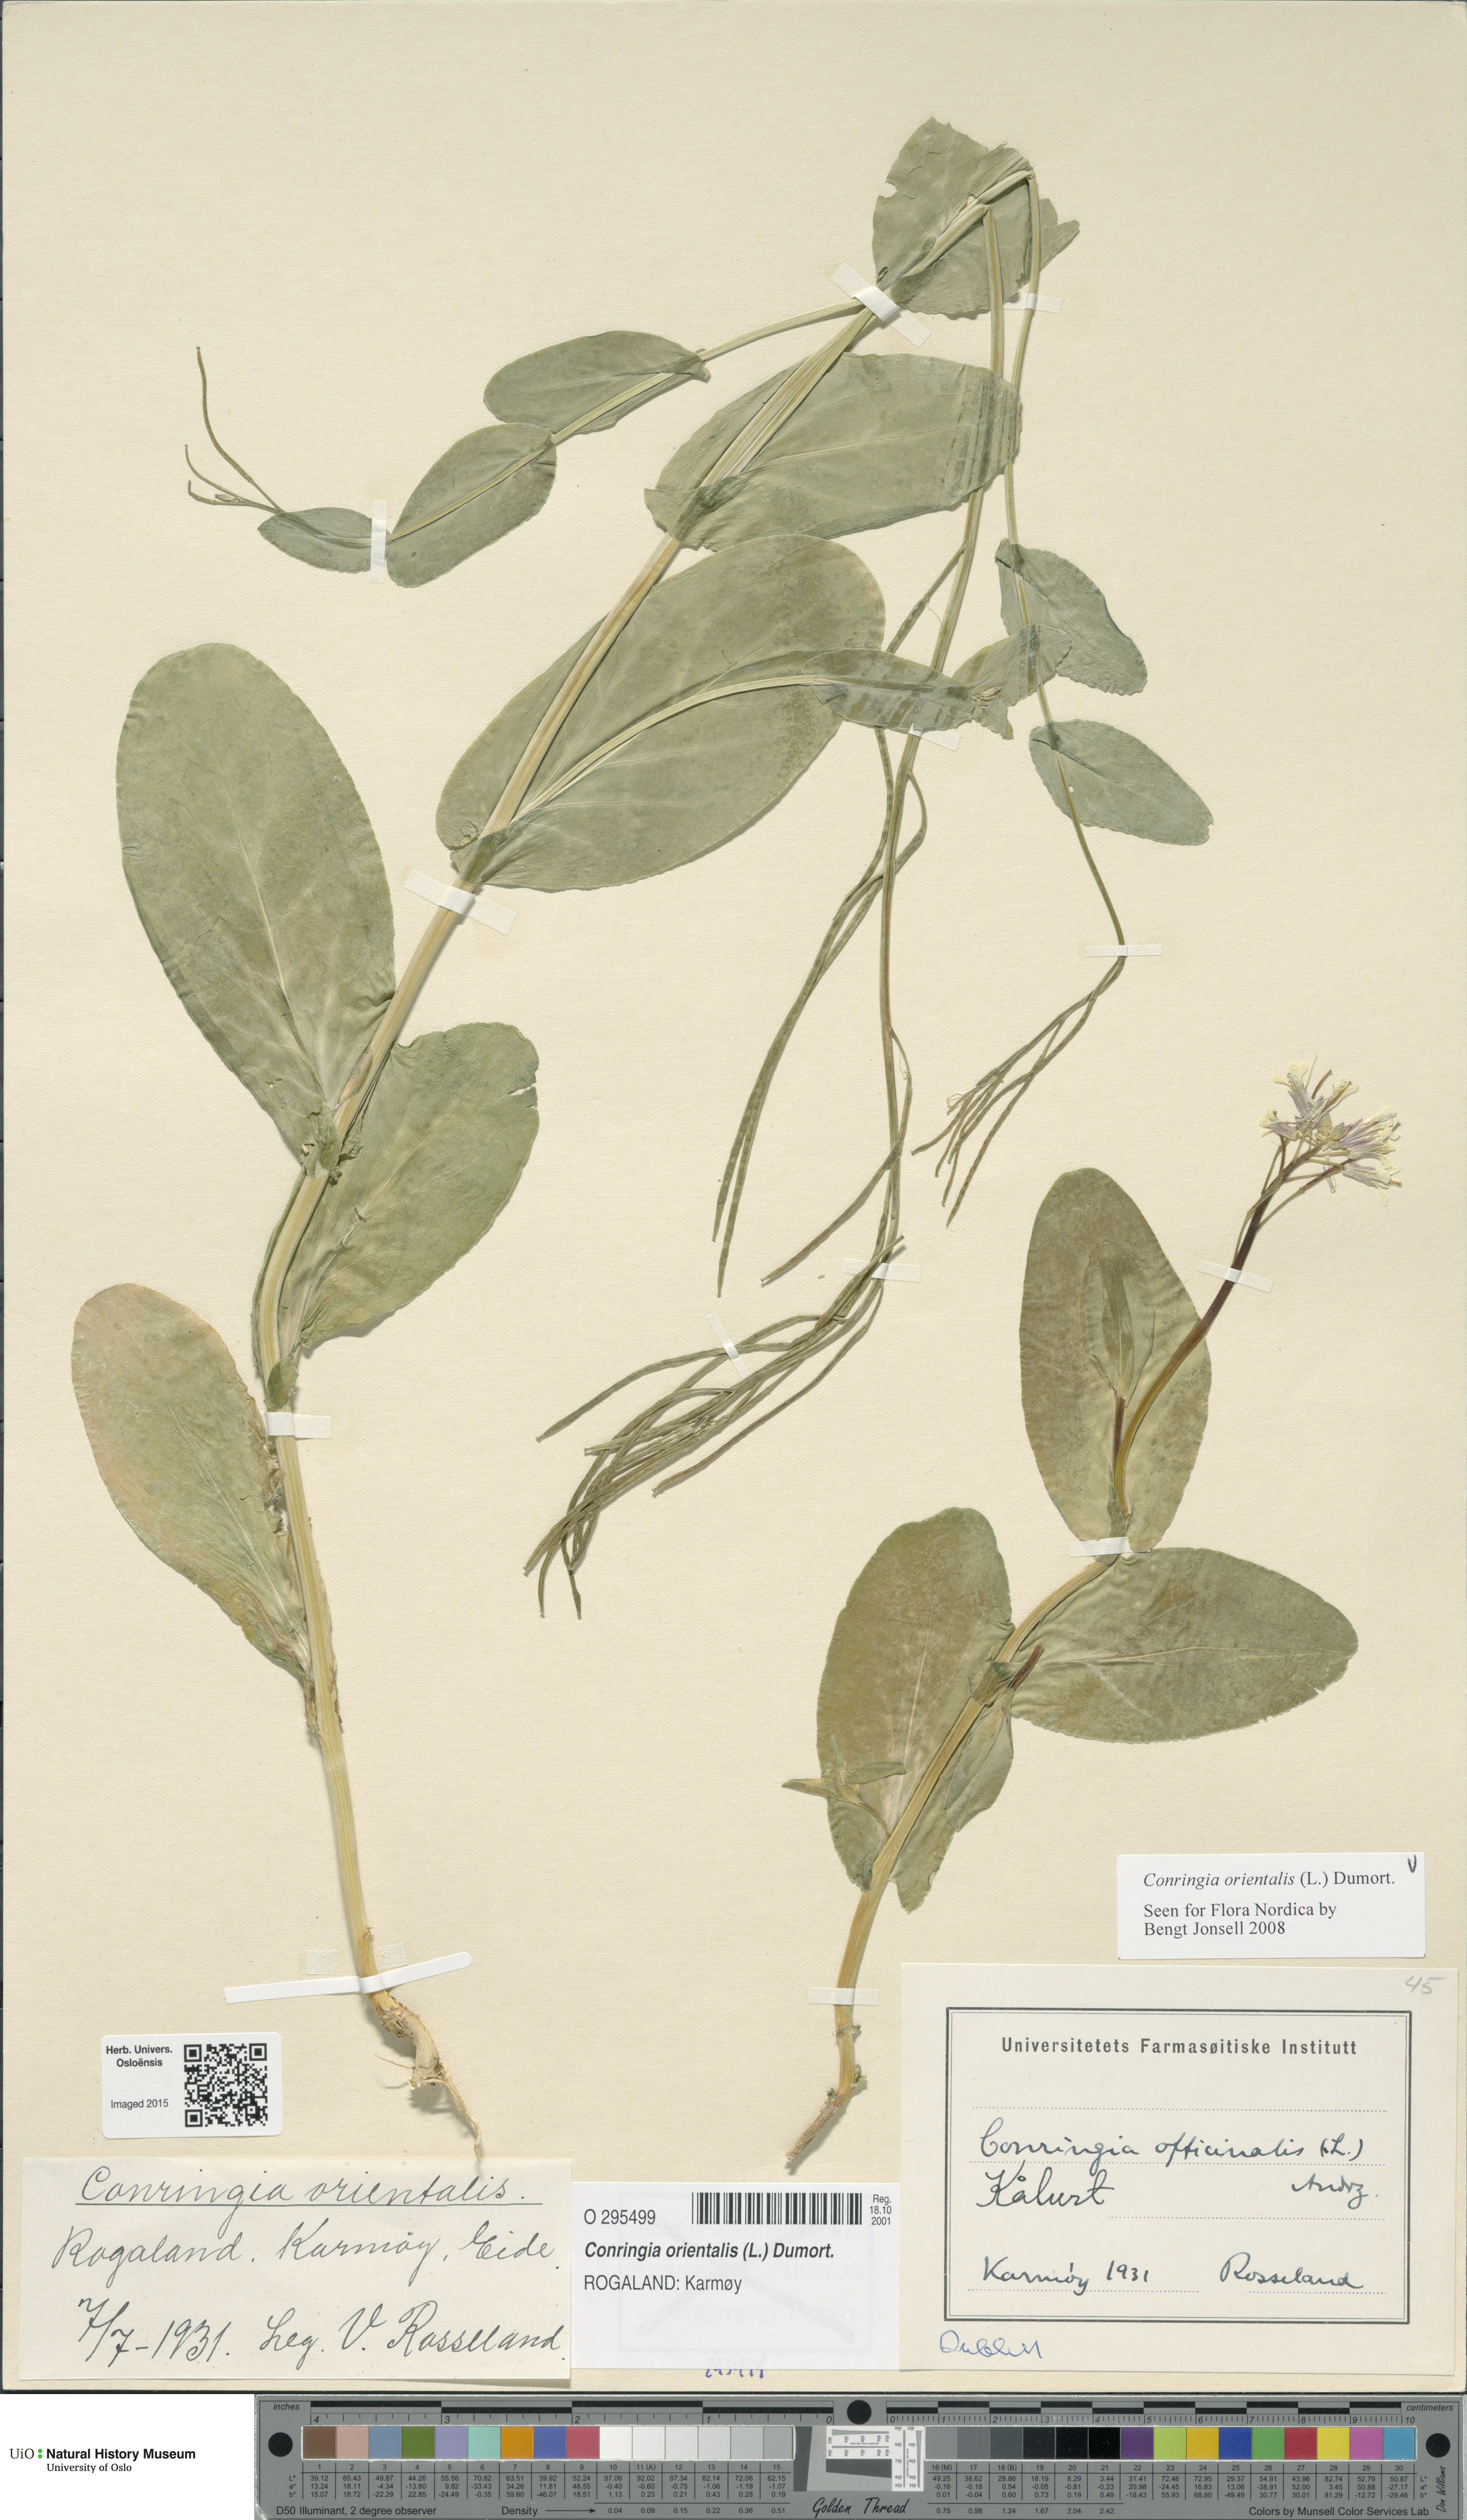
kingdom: Plantae
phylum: Tracheophyta
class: Magnoliopsida
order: Brassicales
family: Brassicaceae
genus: Conringia
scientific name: Conringia orientalis
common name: Hare's ear mustard
